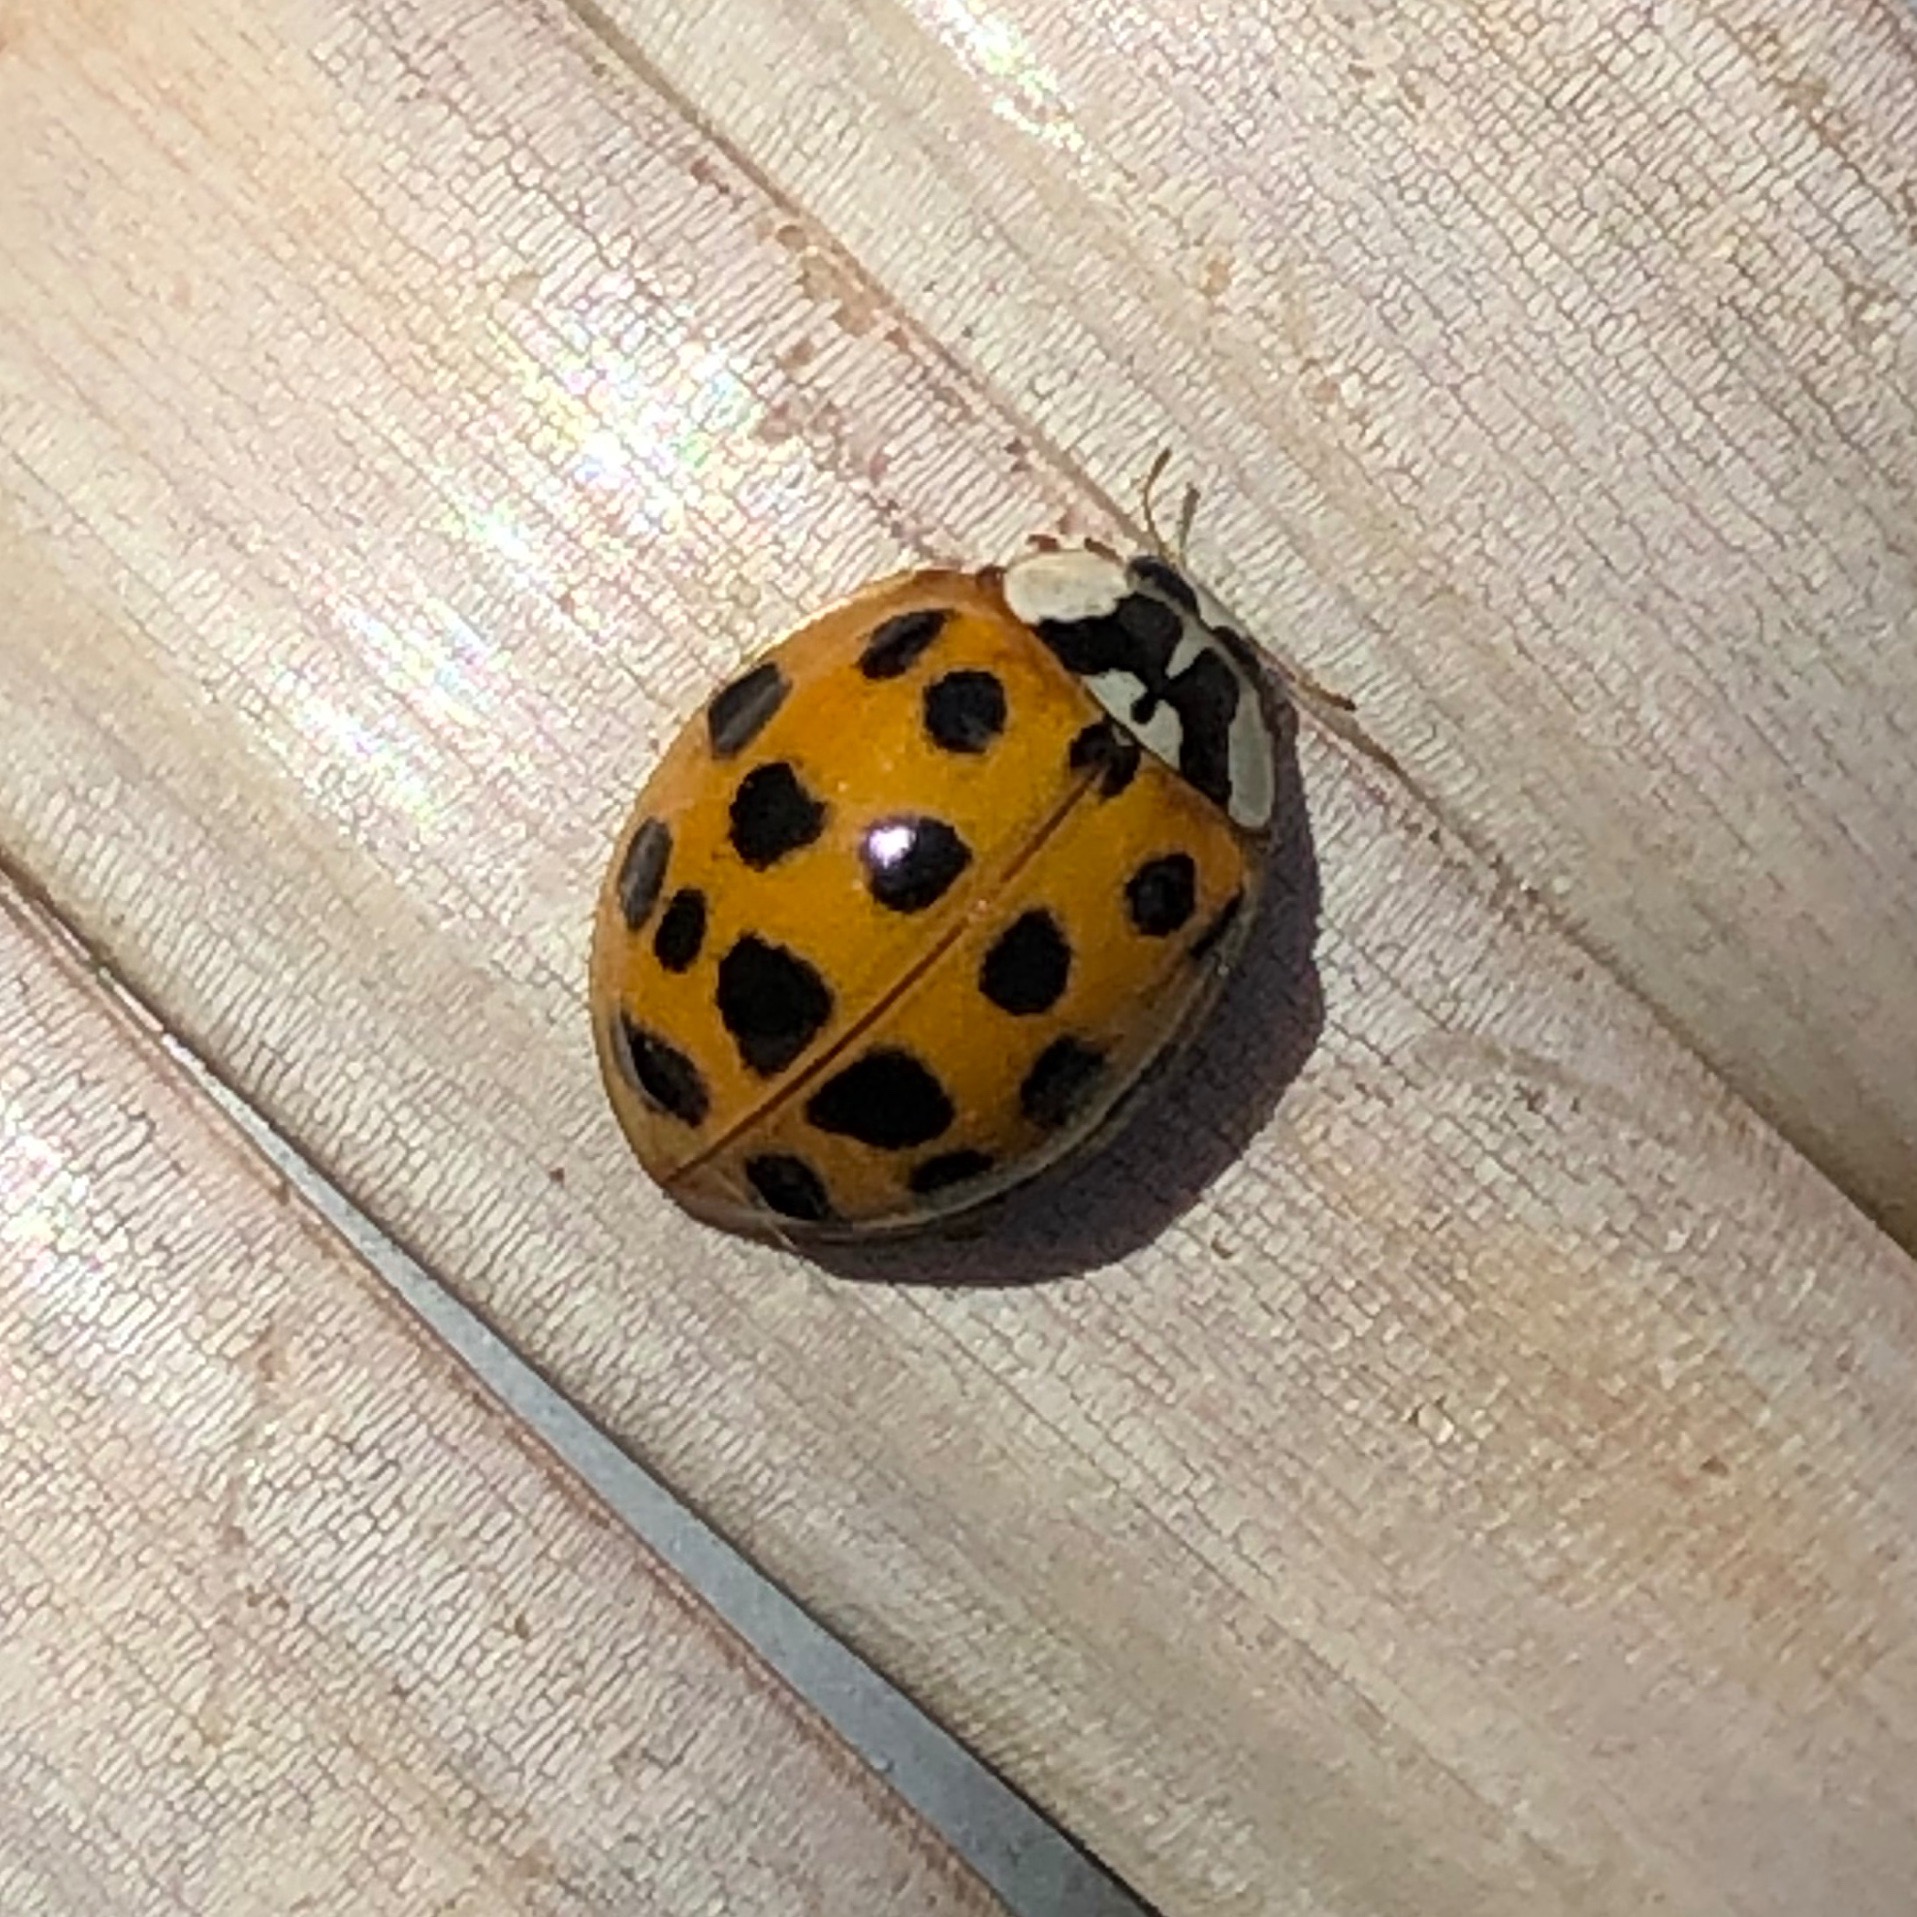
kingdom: Animalia
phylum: Arthropoda
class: Insecta
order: Coleoptera
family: Coccinellidae
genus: Harmonia
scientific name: Harmonia axyridis
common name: Harlekinmariehøne
